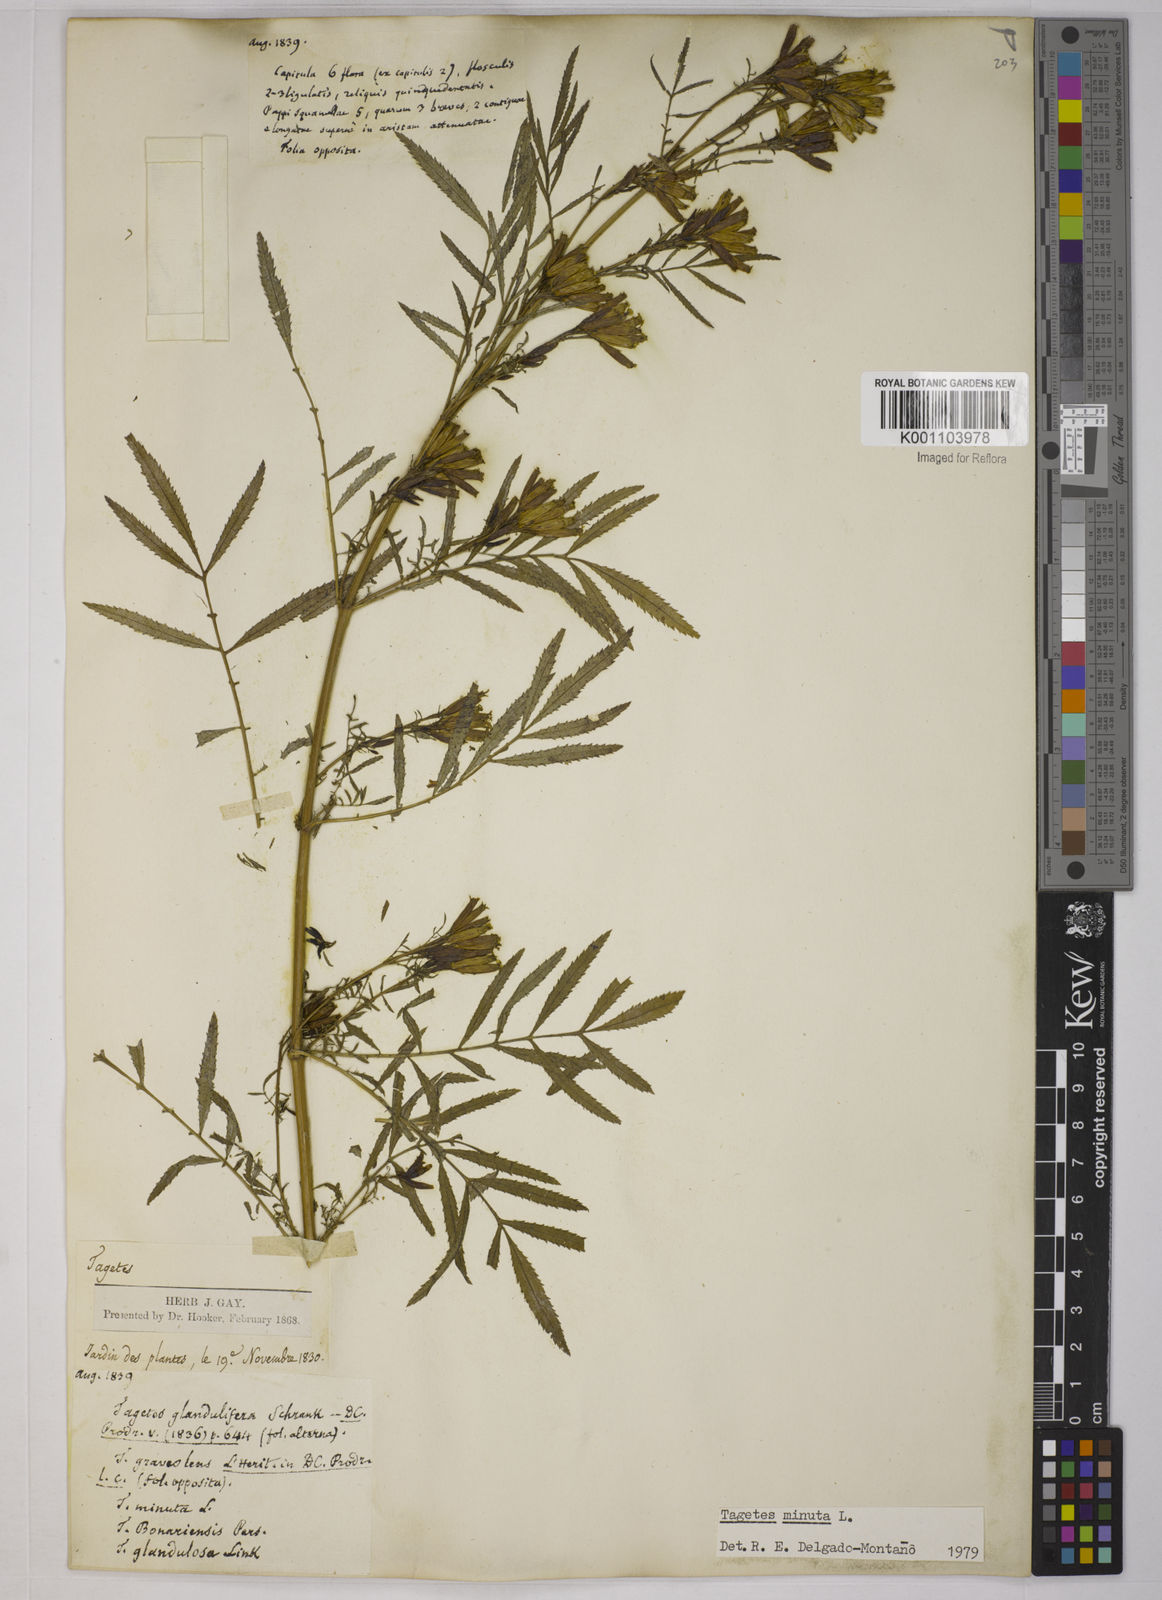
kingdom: Plantae
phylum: Tracheophyta
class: Magnoliopsida
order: Asterales
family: Asteraceae
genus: Tagetes
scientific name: Tagetes minuta
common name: Muster john henry
